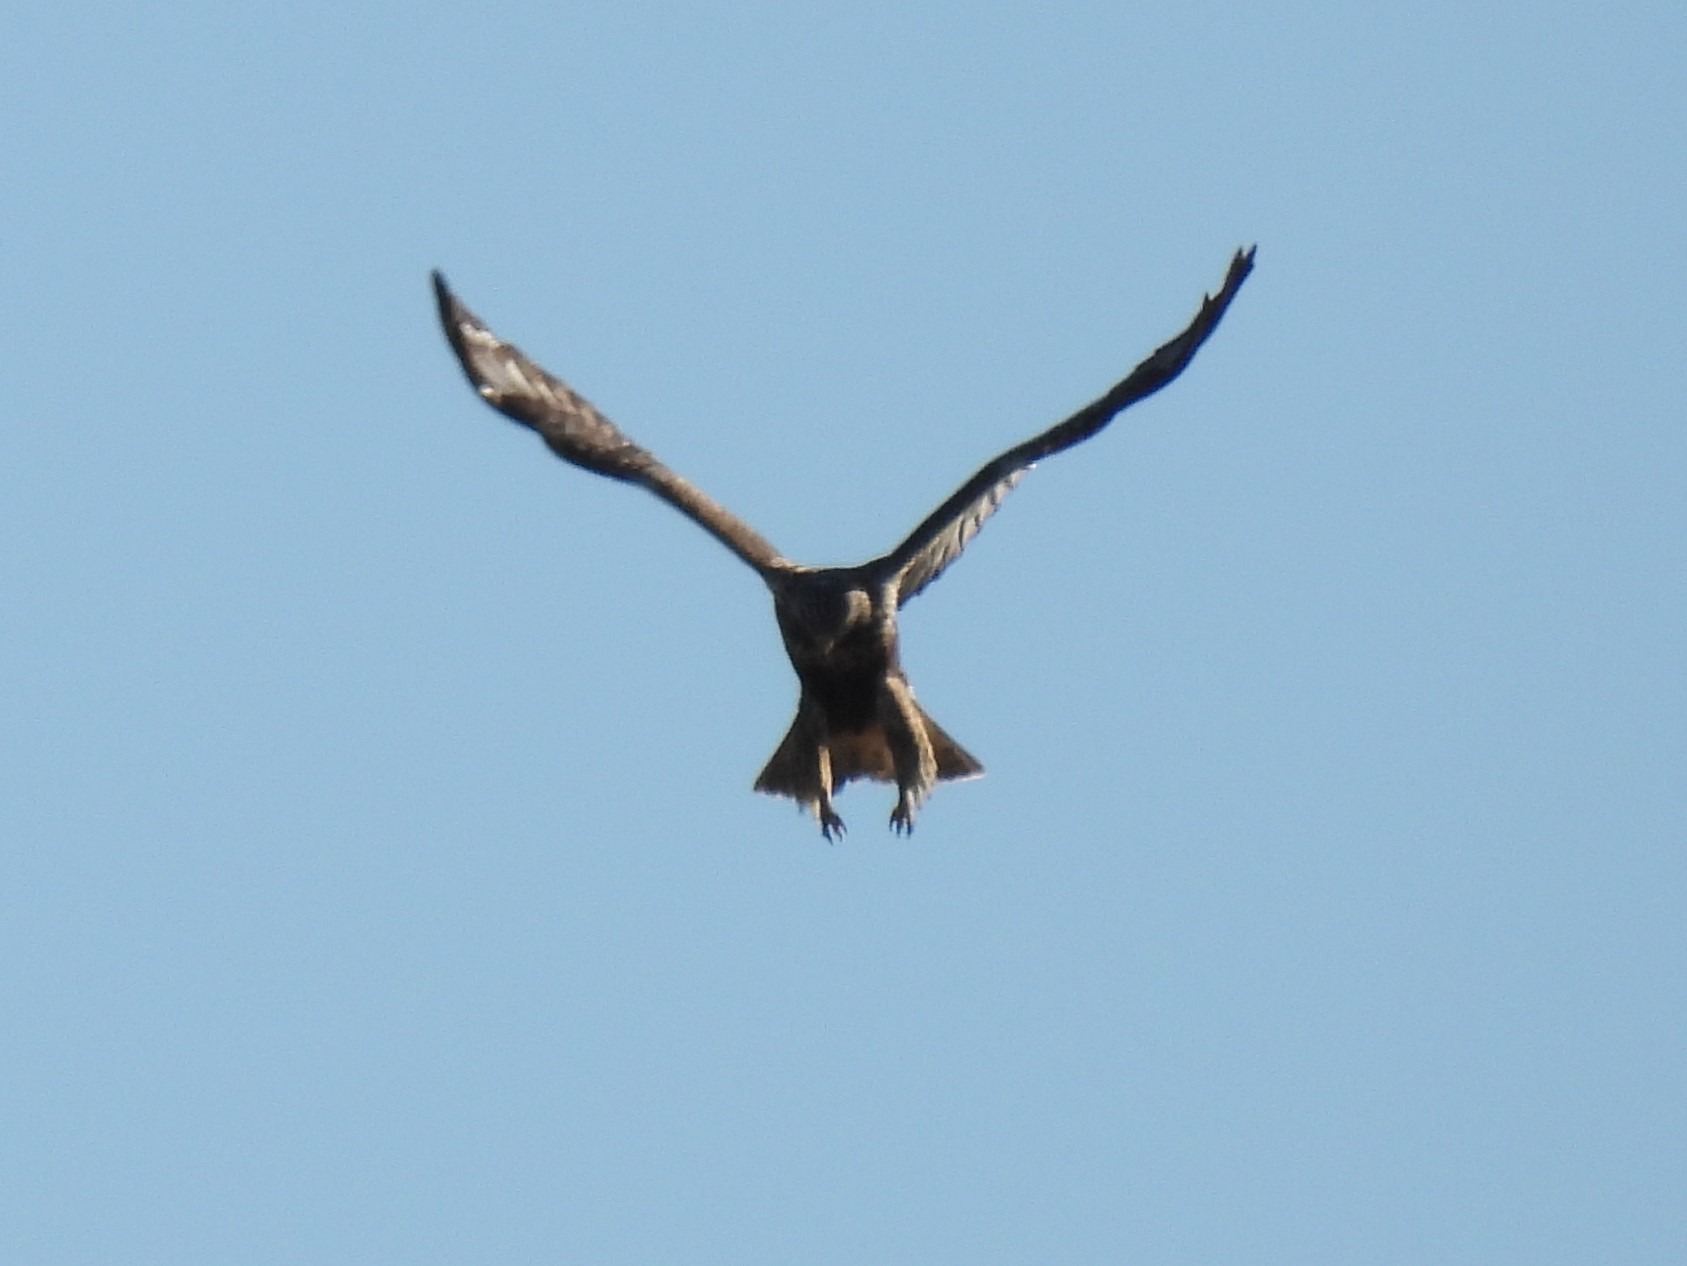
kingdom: Animalia
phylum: Chordata
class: Aves
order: Accipitriformes
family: Accipitridae
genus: Buteo
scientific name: Buteo lagopus
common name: Fjeldvåge
